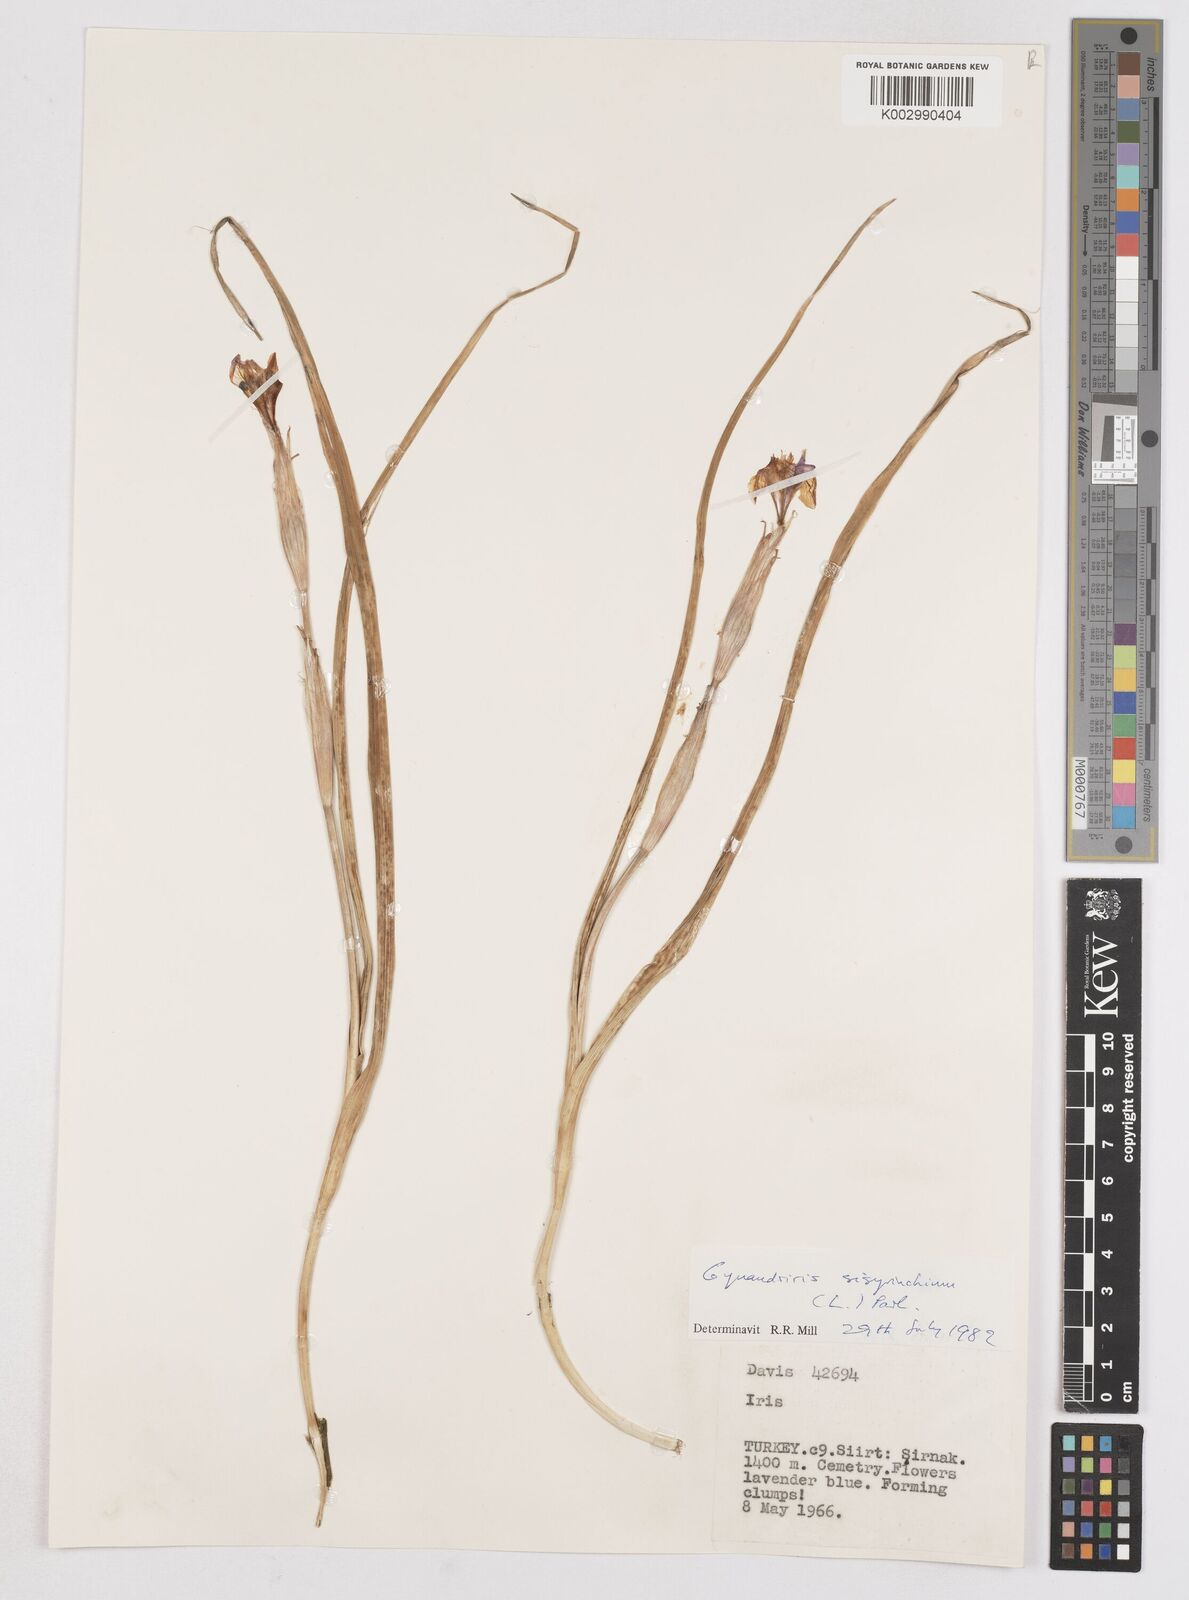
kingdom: Plantae
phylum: Tracheophyta
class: Liliopsida
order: Asparagales
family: Iridaceae
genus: Moraea
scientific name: Moraea sisyrinchium
